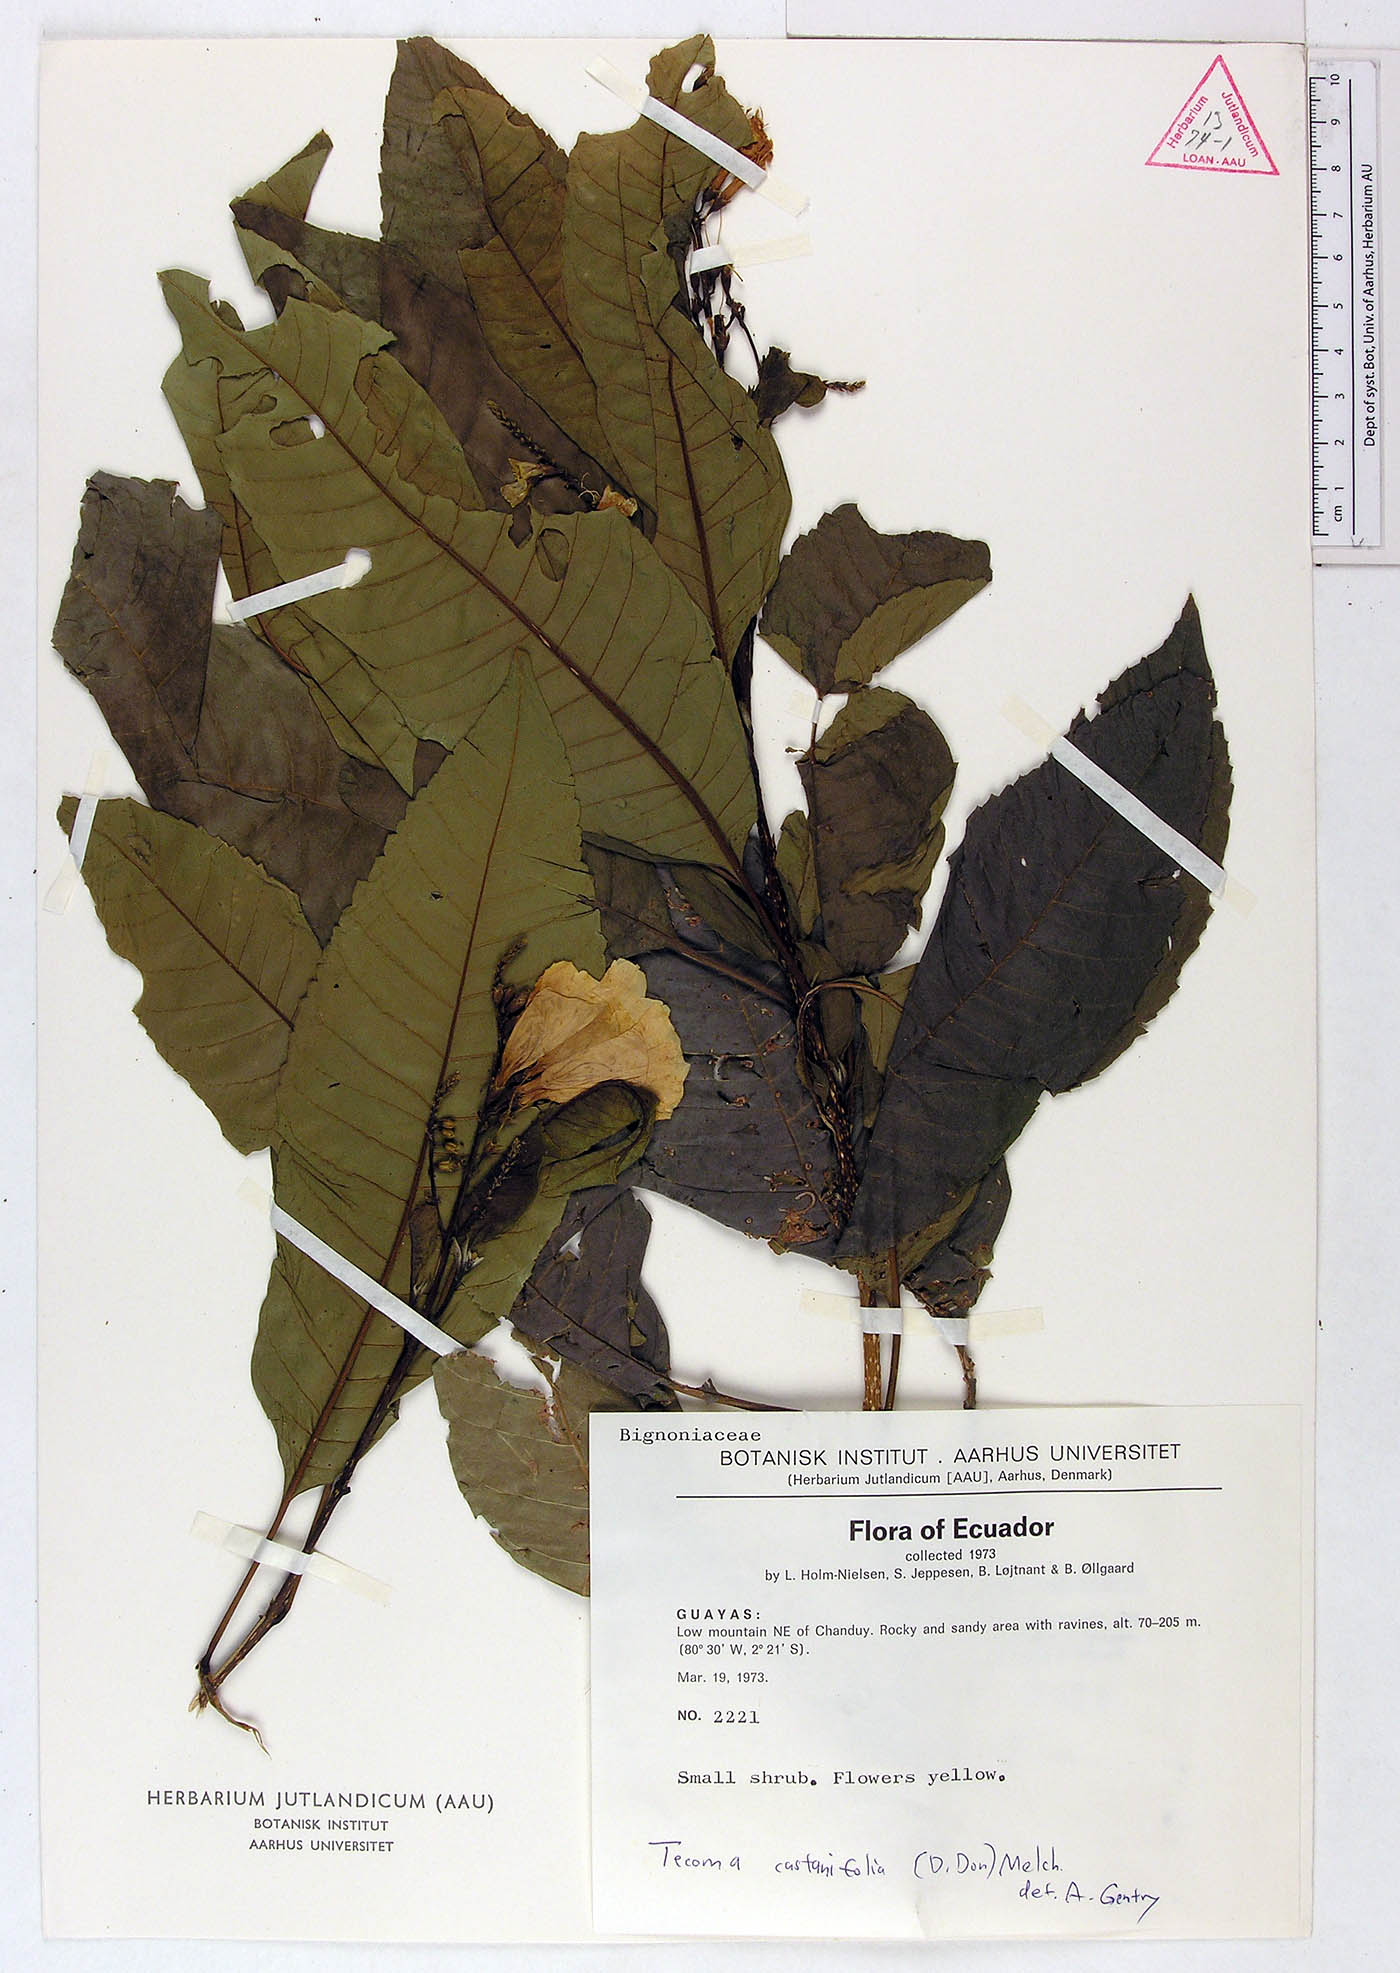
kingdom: Plantae
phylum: Tracheophyta
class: Magnoliopsida
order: Lamiales
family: Bignoniaceae
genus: Tecoma
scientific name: Tecoma castanifolia
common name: Chestnutleaf trumpetbush
